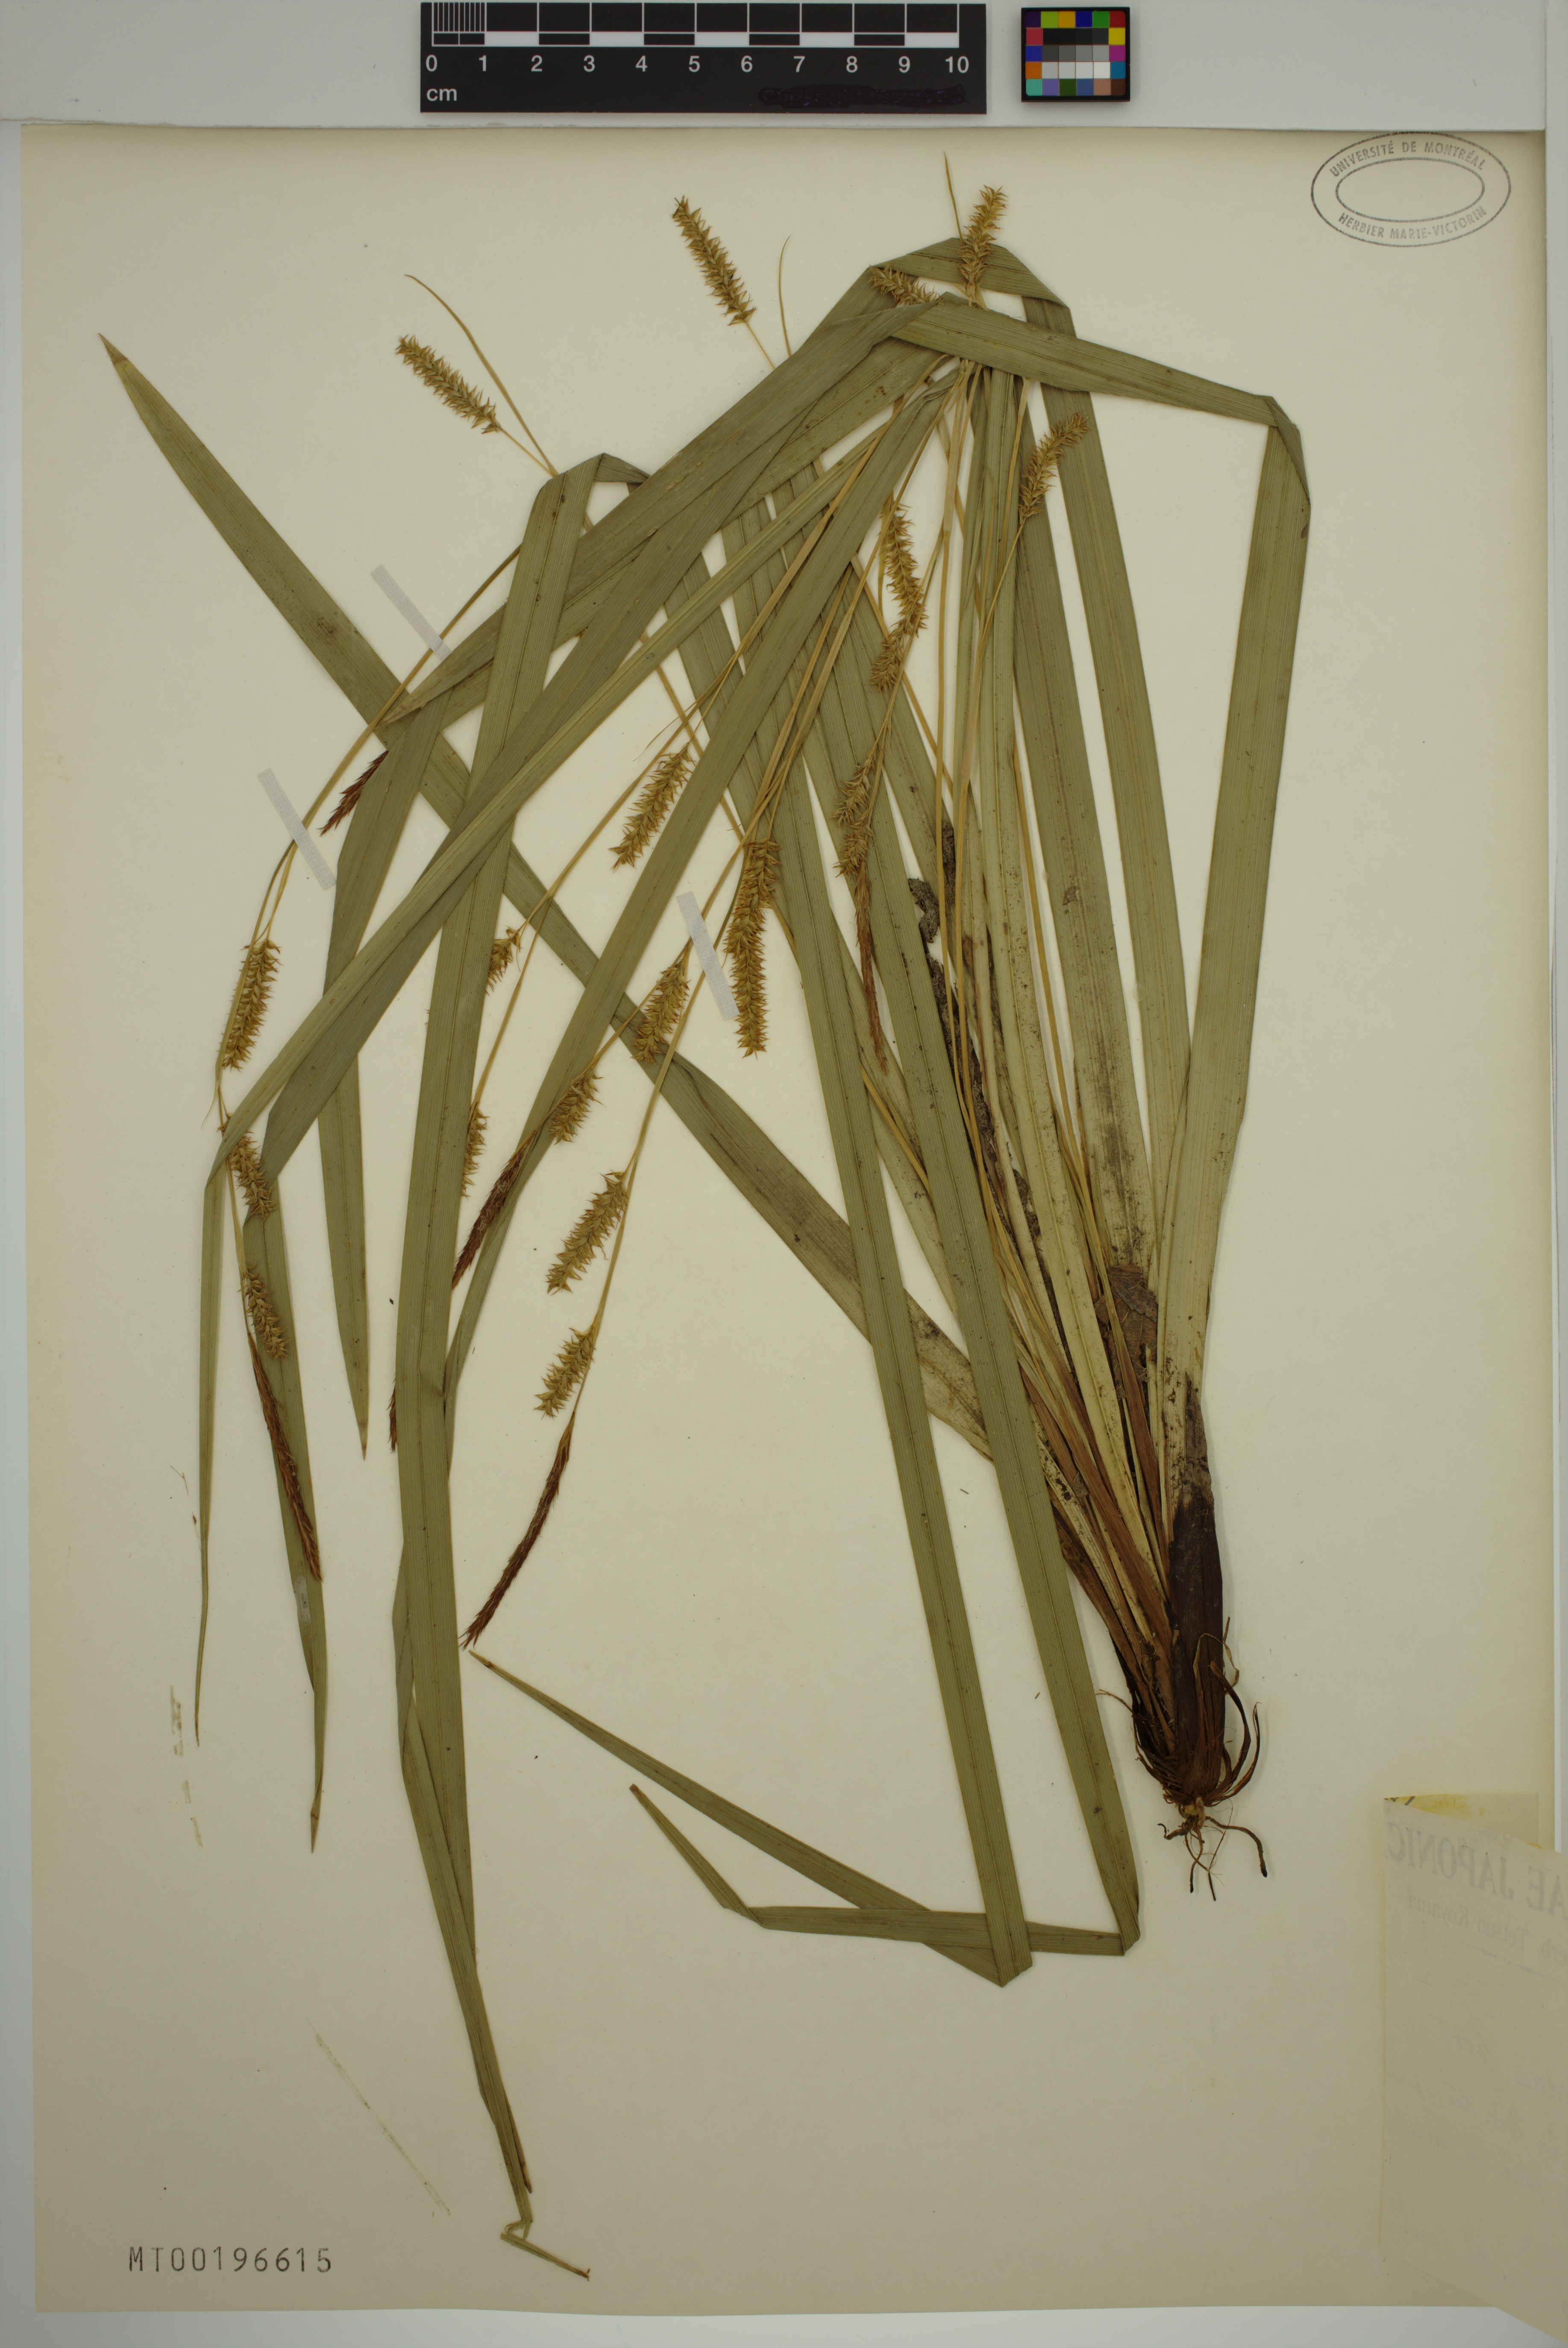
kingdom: Plantae
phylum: Tracheophyta
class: Liliopsida
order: Poales
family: Cyperaceae
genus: Carex
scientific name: Carex morrowii
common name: Japanese sedge
